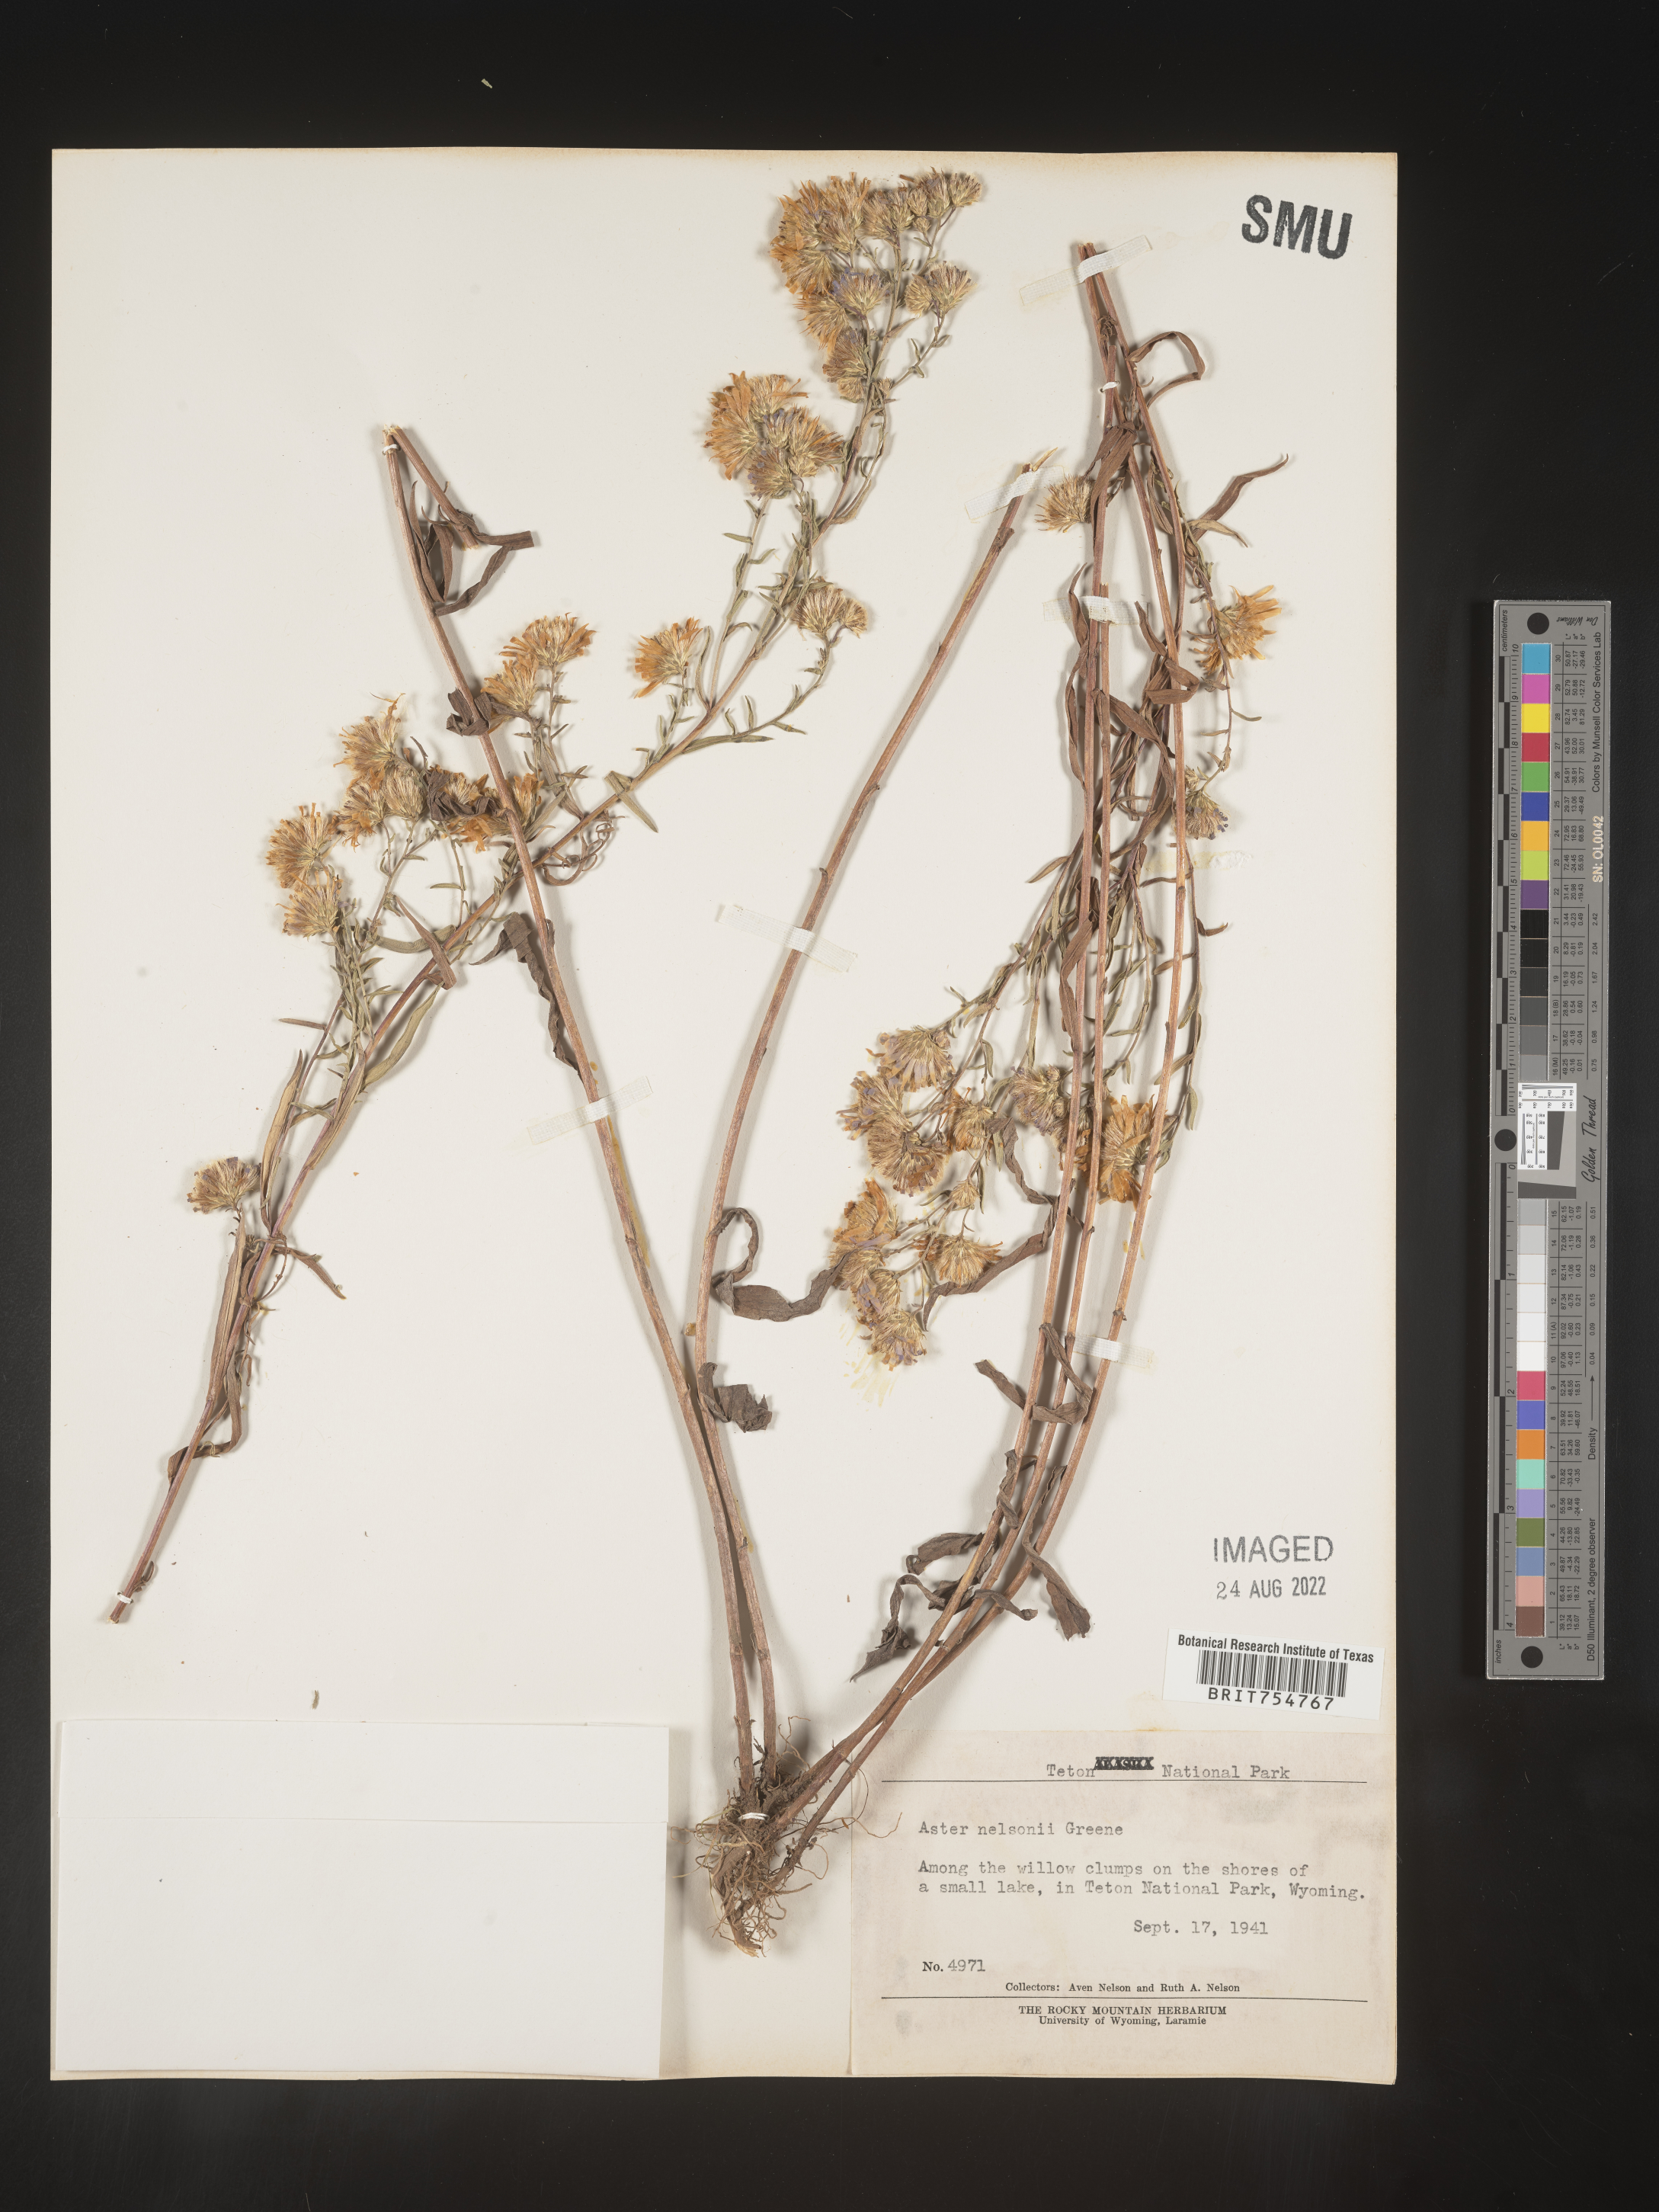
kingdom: Plantae
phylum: Tracheophyta
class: Magnoliopsida
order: Asterales
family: Asteraceae
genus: Symphyotrichum
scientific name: Symphyotrichum
